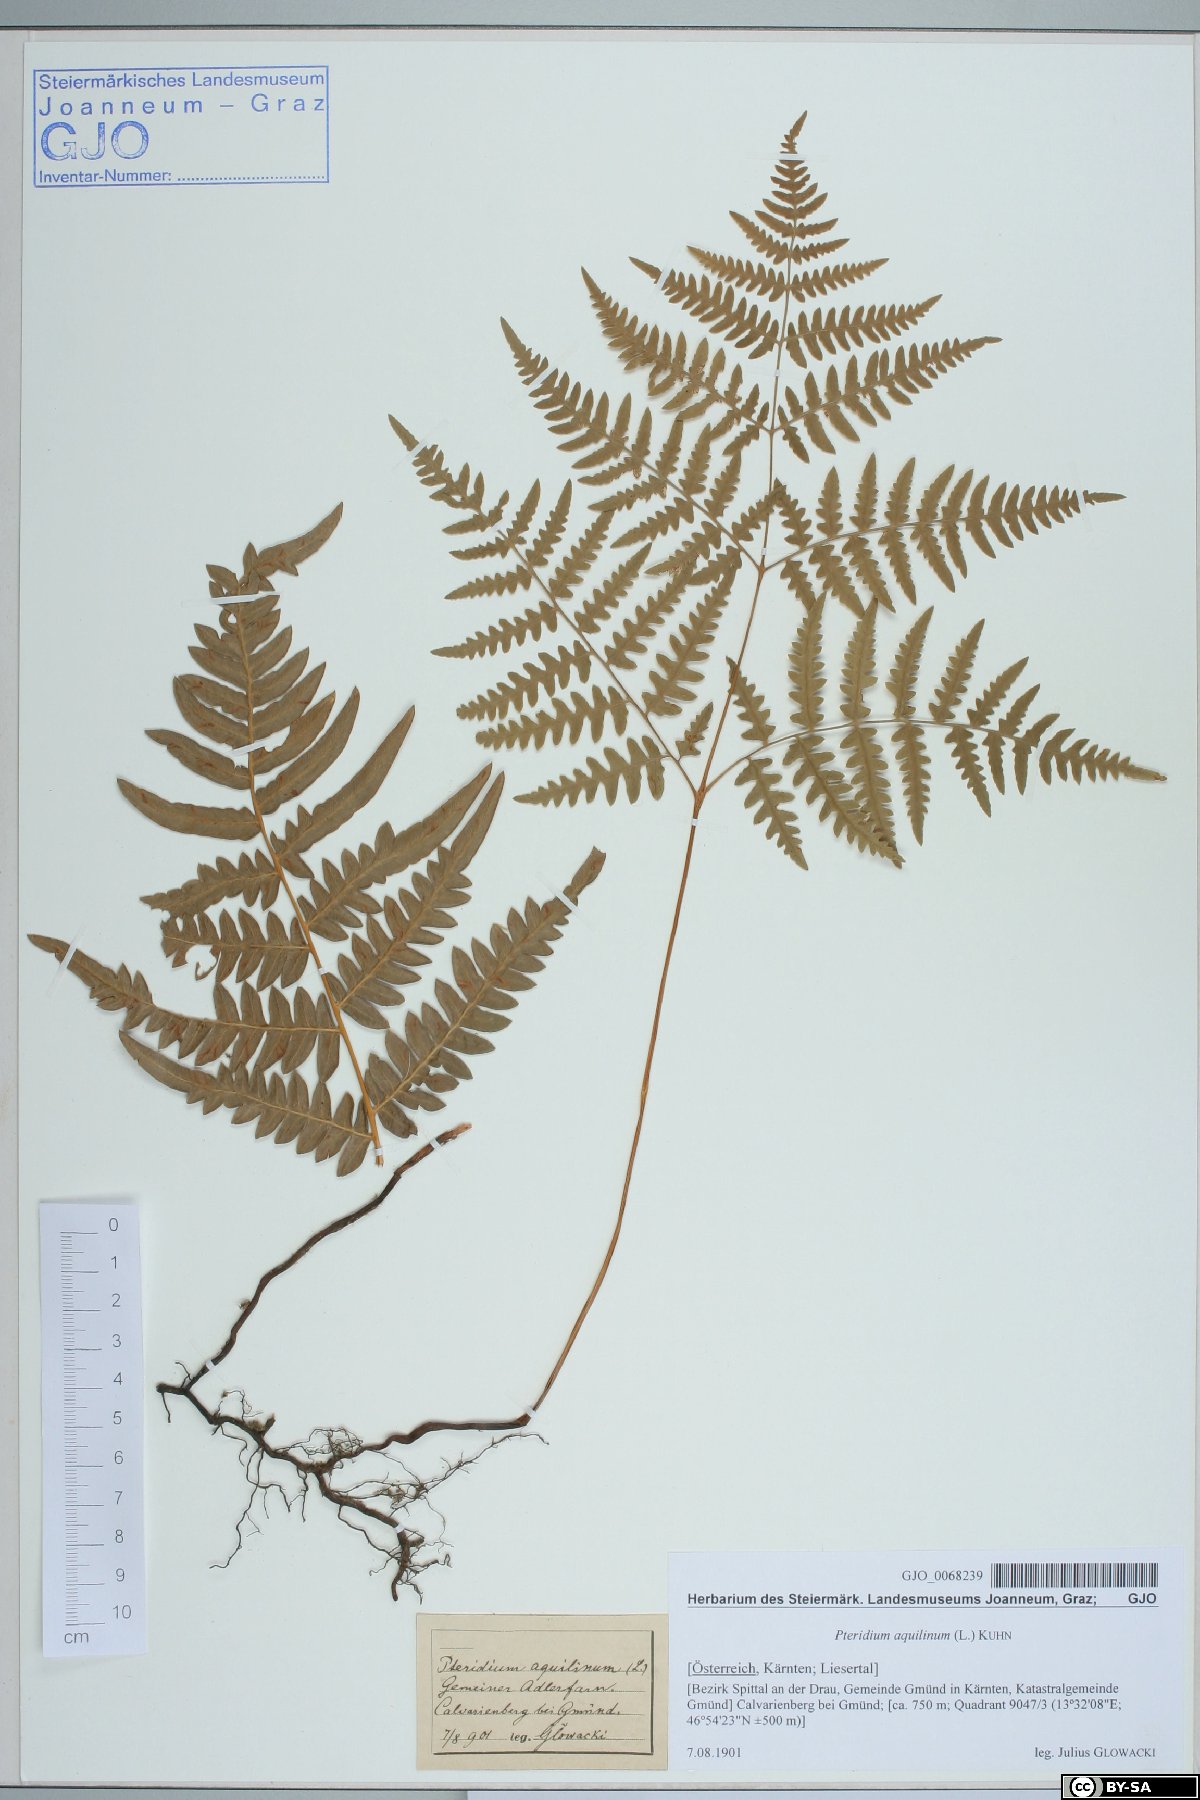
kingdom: Plantae
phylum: Tracheophyta
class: Polypodiopsida
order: Polypodiales
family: Dennstaedtiaceae
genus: Pteridium
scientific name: Pteridium aquilinum
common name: Bracken
